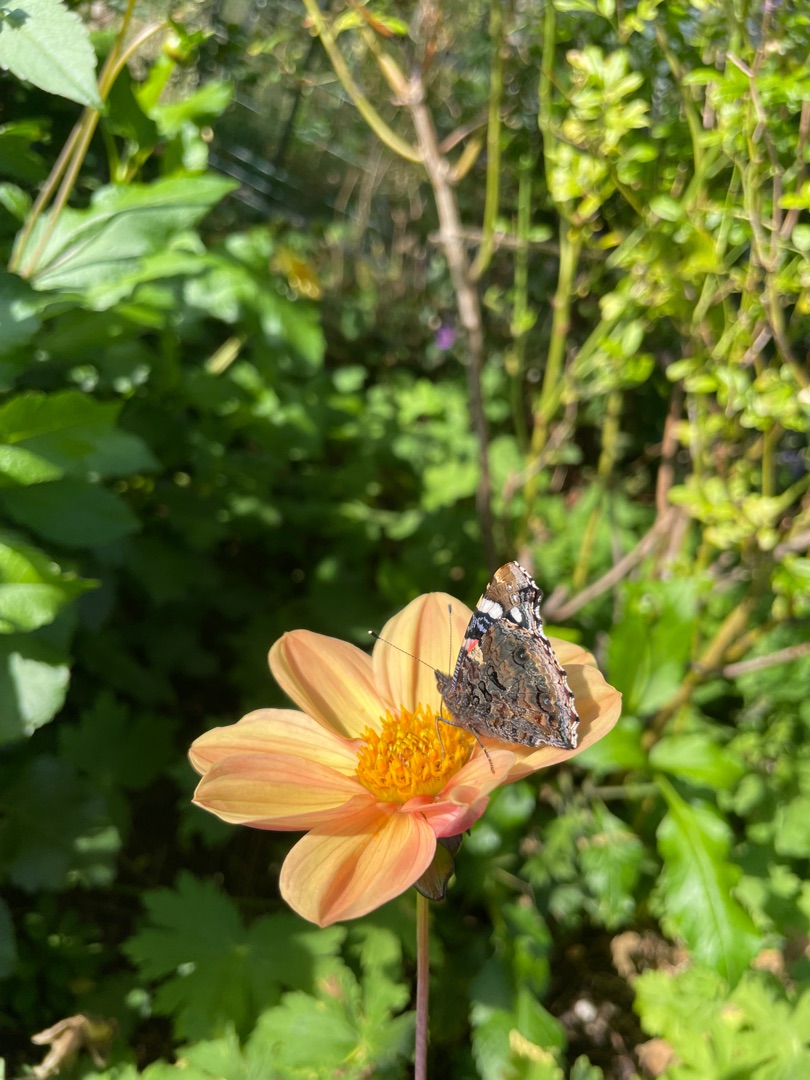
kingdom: Animalia
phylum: Arthropoda
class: Insecta
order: Lepidoptera
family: Nymphalidae
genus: Vanessa
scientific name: Vanessa atalanta
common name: Admiral
